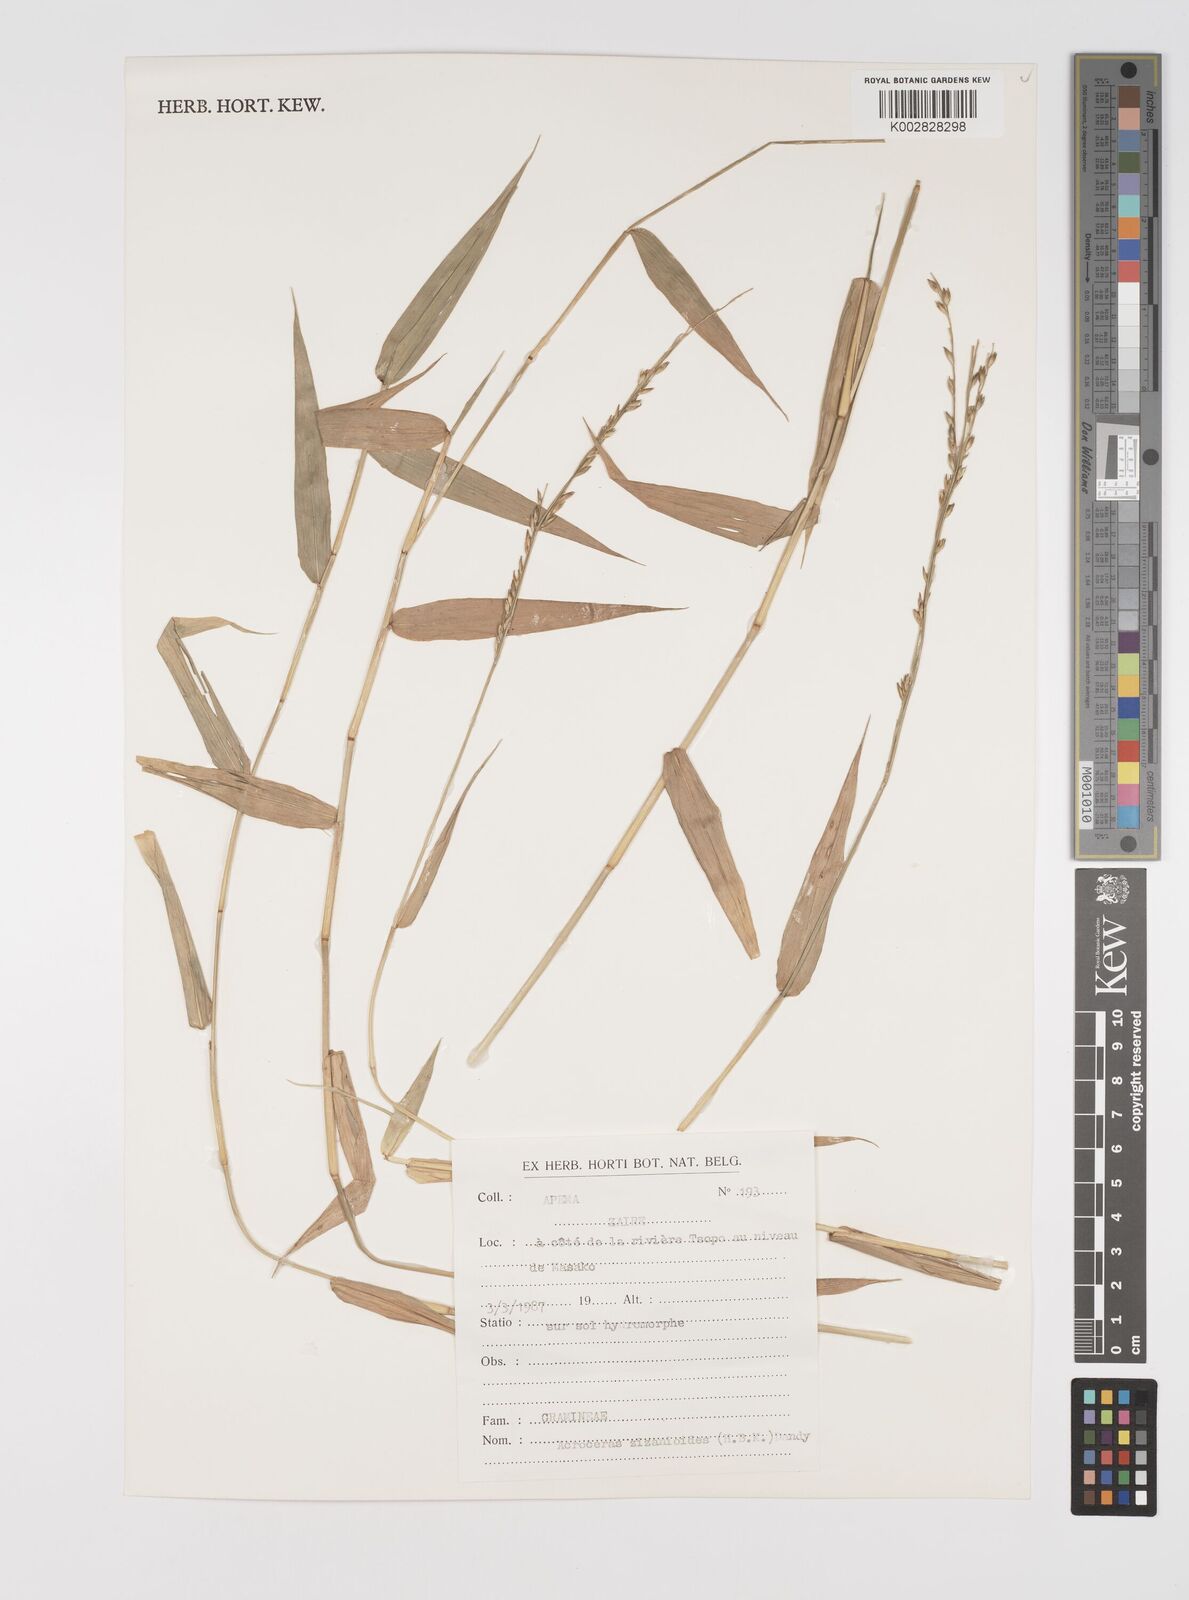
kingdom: Plantae
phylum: Tracheophyta
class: Liliopsida
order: Poales
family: Poaceae
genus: Acroceras
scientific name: Acroceras zizanioides
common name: Oat grass
